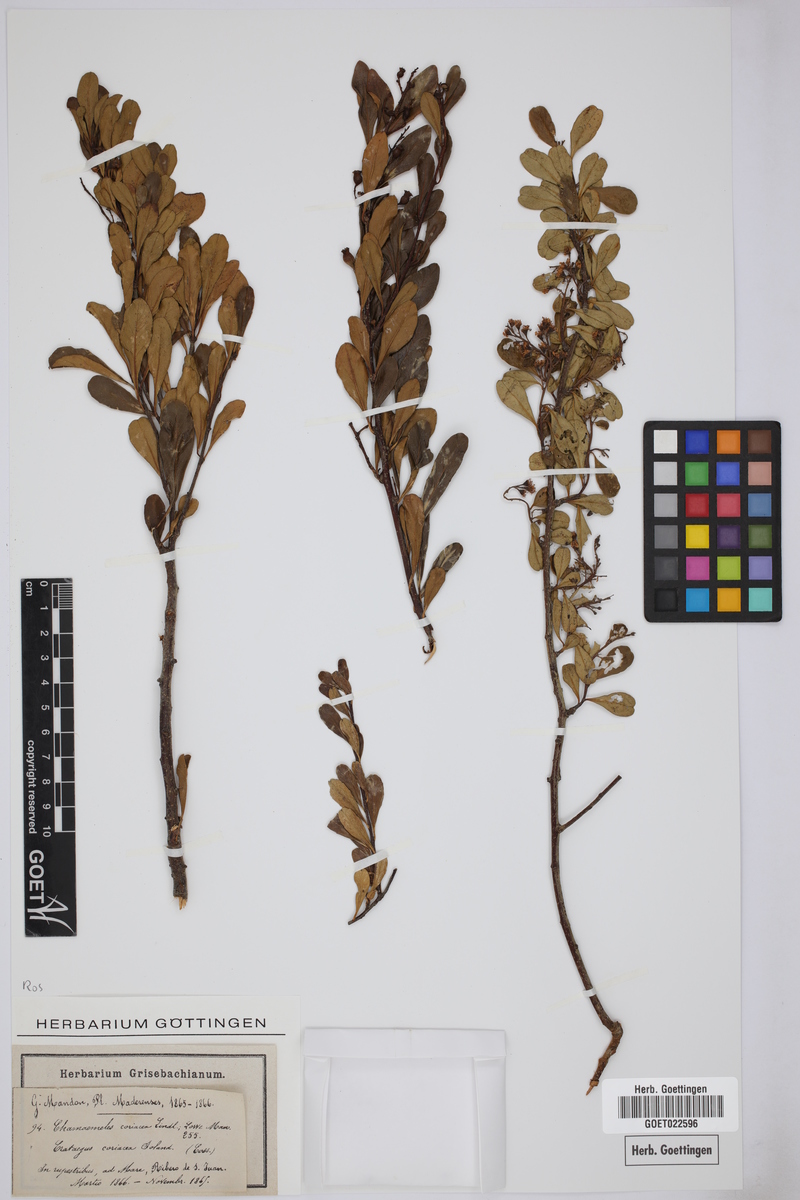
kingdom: Plantae
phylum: Tracheophyta
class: Magnoliopsida
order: Rosales
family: Rosaceae
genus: Chamaemeles
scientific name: Chamaemeles coriacea
